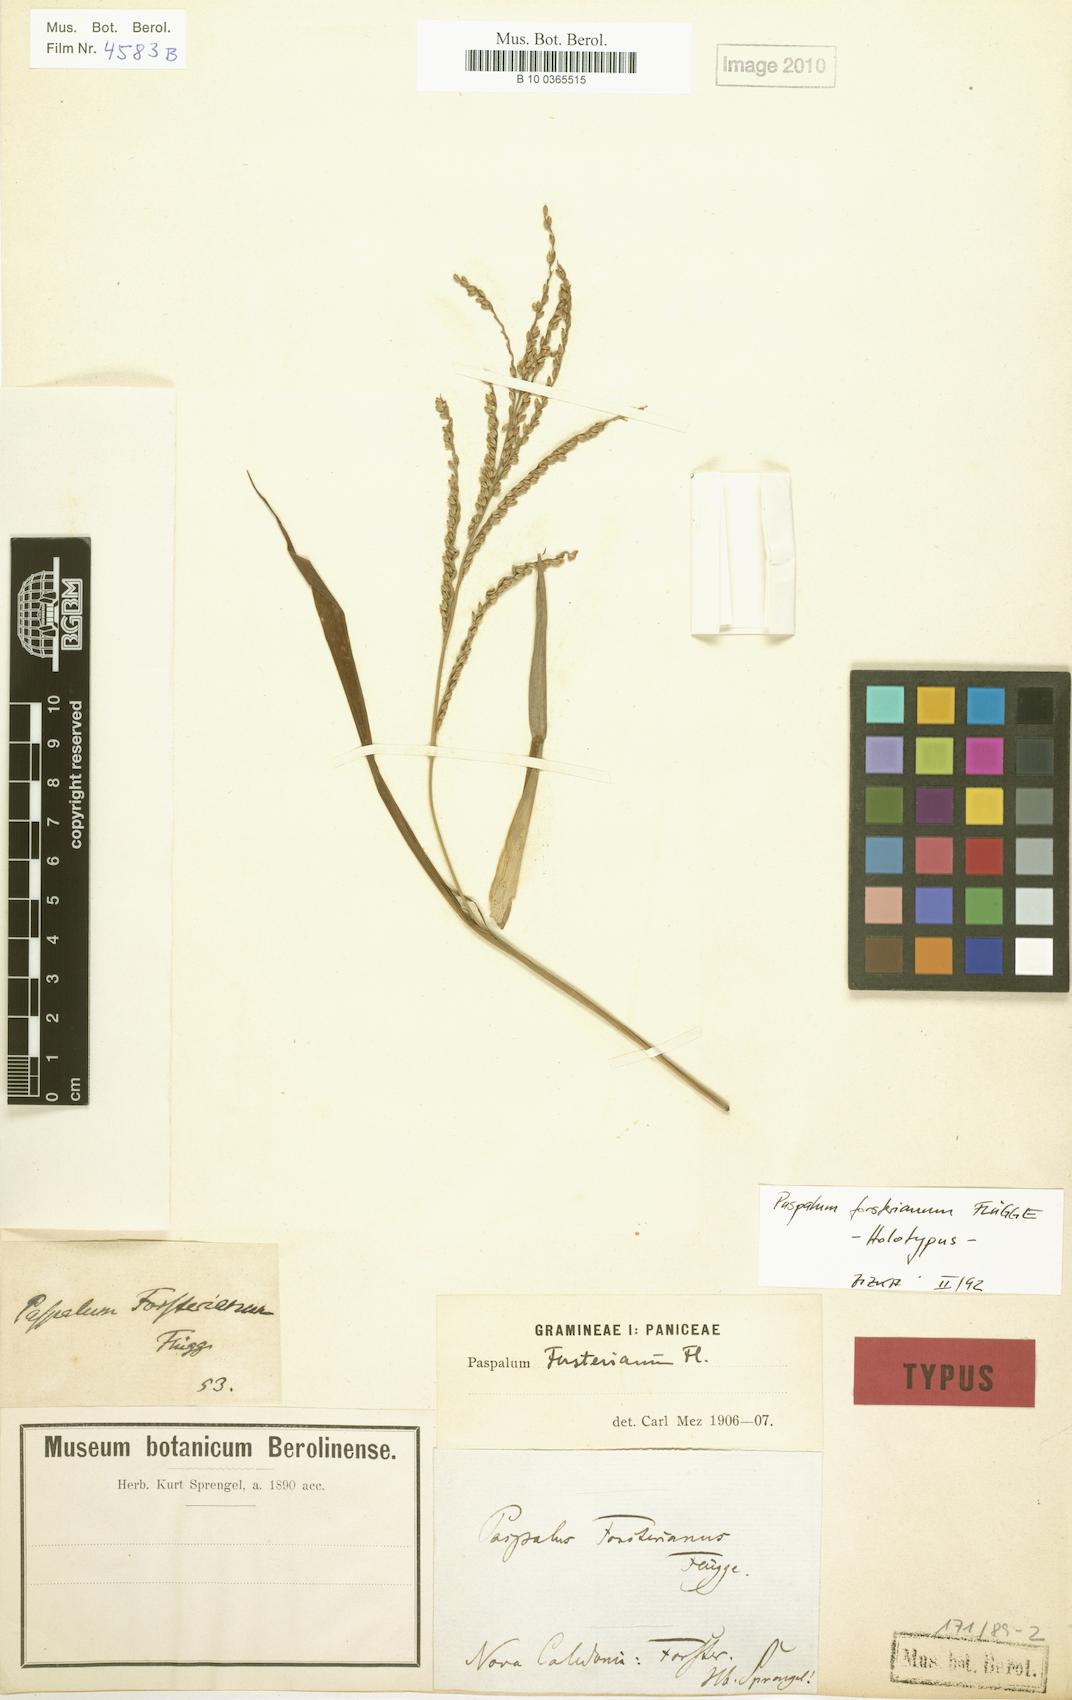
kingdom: Plantae
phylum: Tracheophyta
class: Liliopsida
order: Poales
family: Poaceae
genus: Paspalum
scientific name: Paspalum forsterianum
